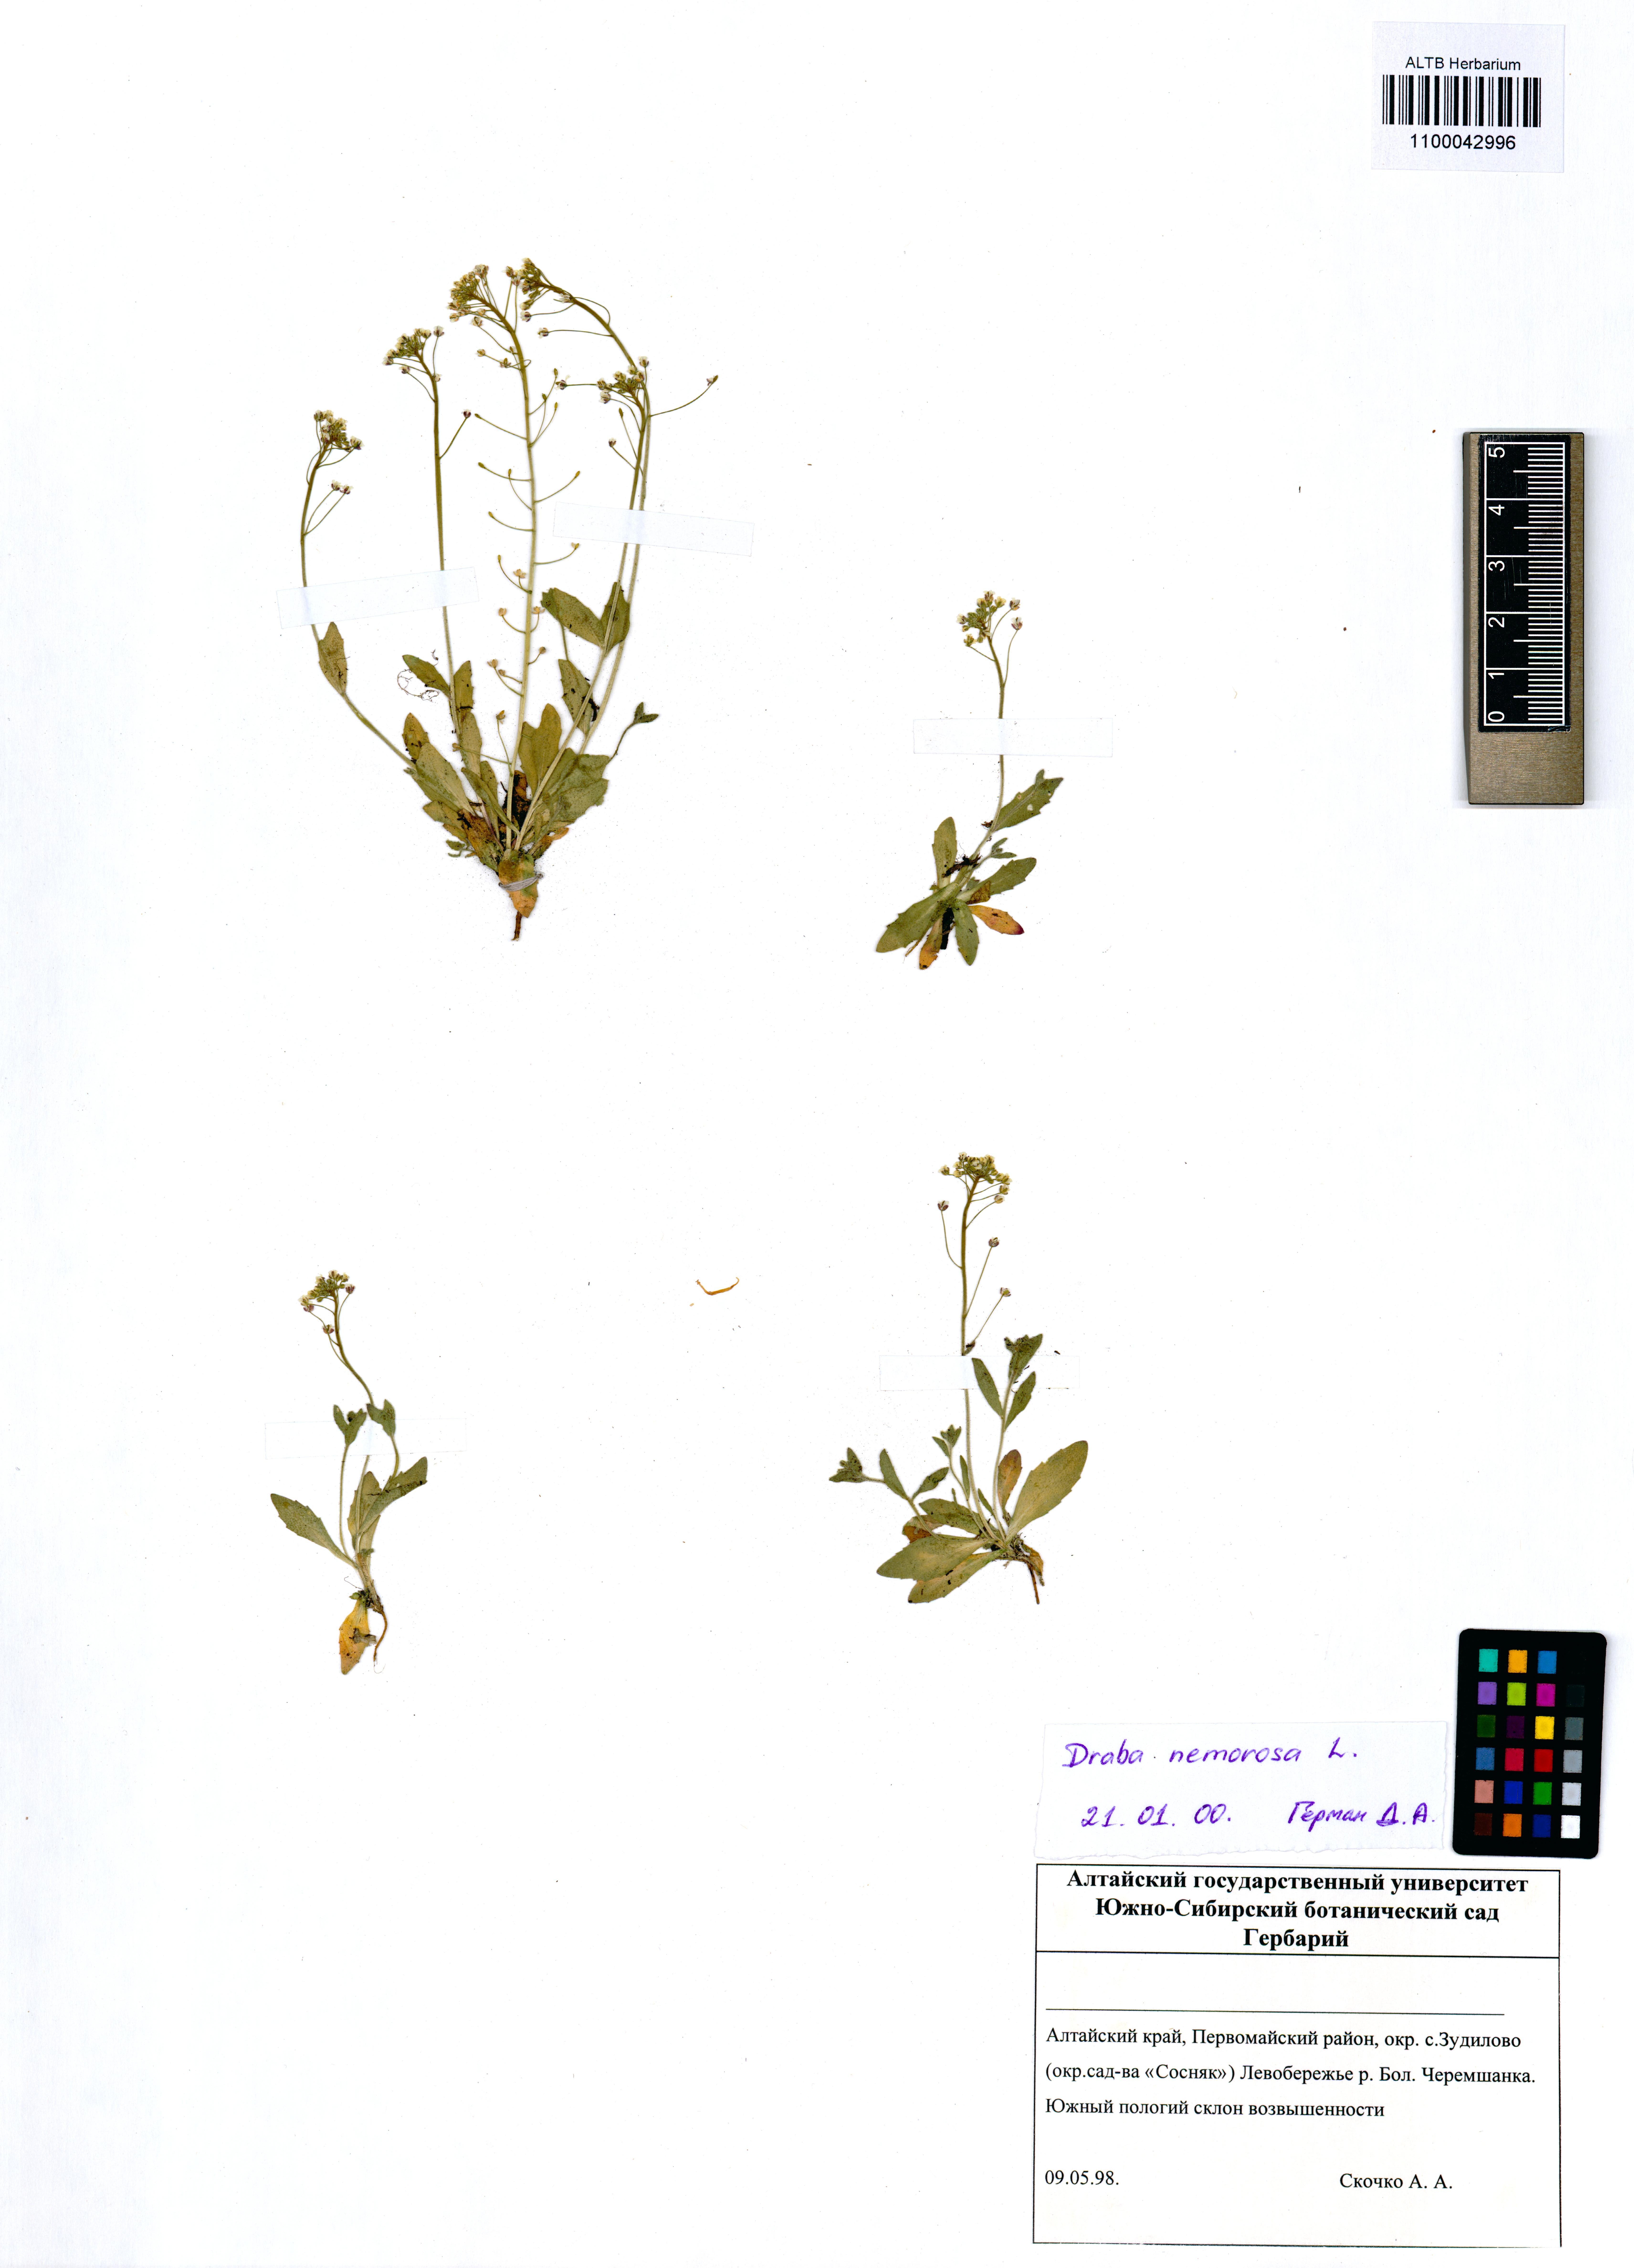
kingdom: Plantae
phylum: Tracheophyta
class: Magnoliopsida
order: Brassicales
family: Brassicaceae
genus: Draba
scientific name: Draba nemorosa
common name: Wood whitlow-grass
